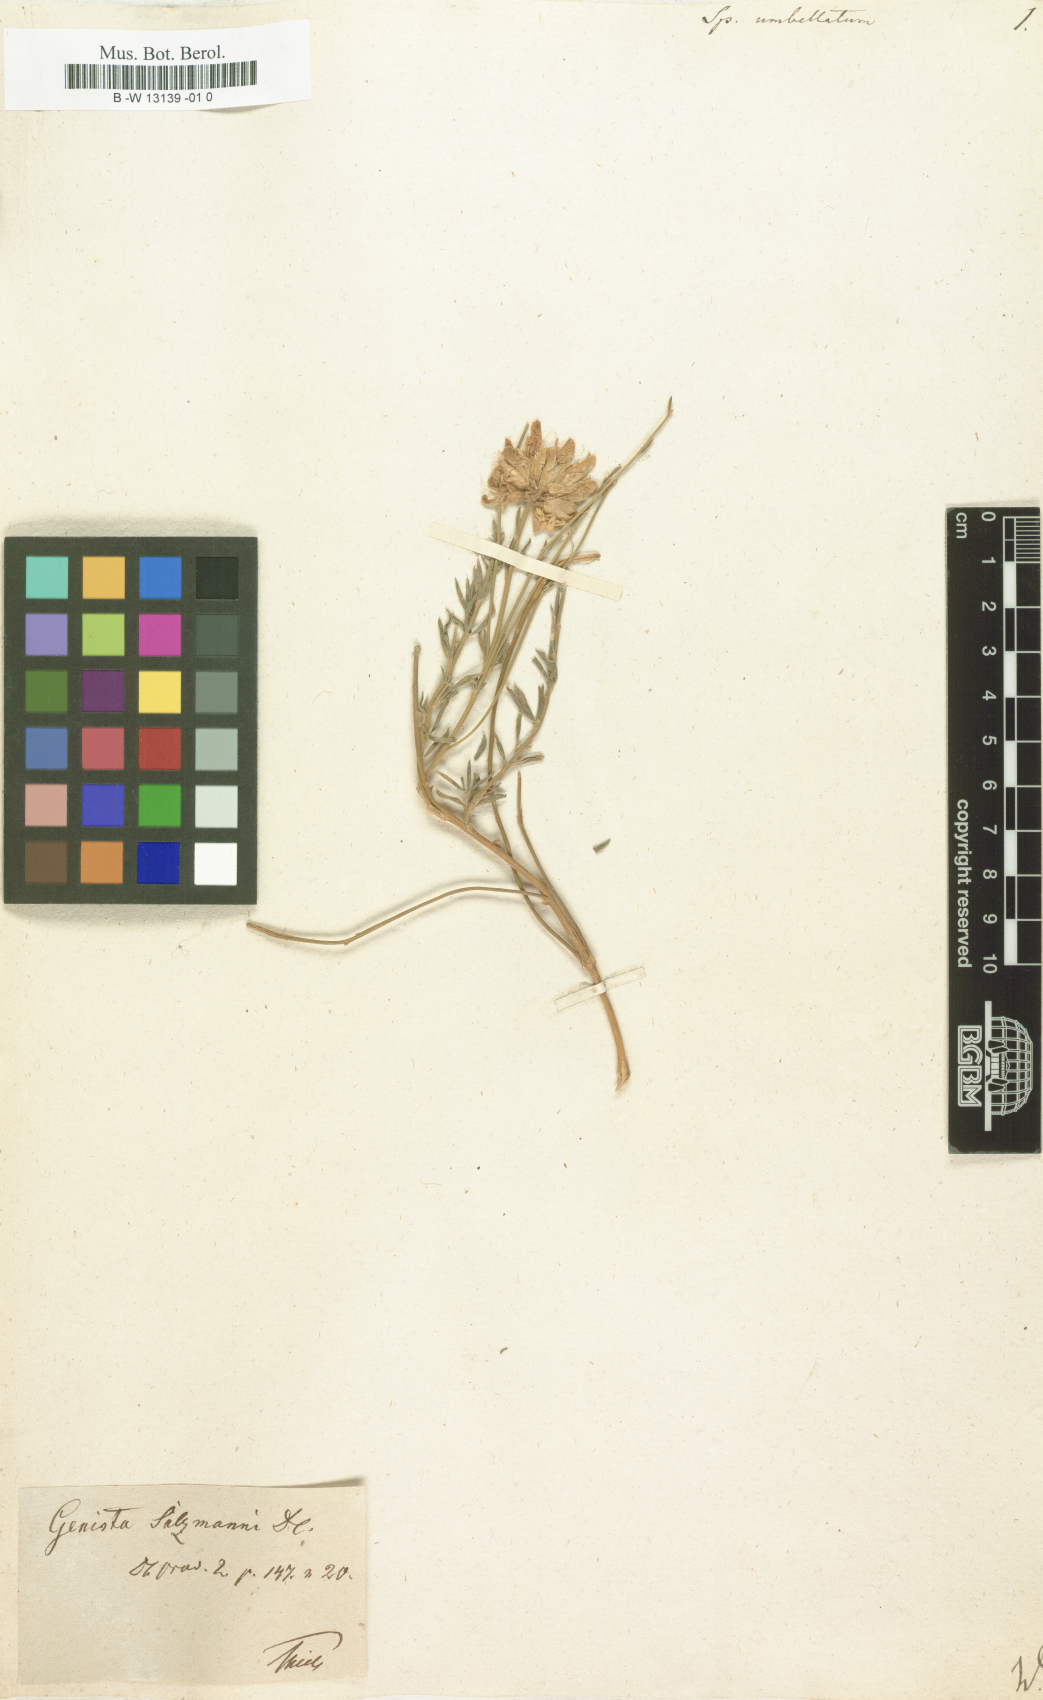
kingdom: Plantae
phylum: Tracheophyta
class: Magnoliopsida
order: Fabales
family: Fabaceae
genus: Genista
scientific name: Genista umbellata
